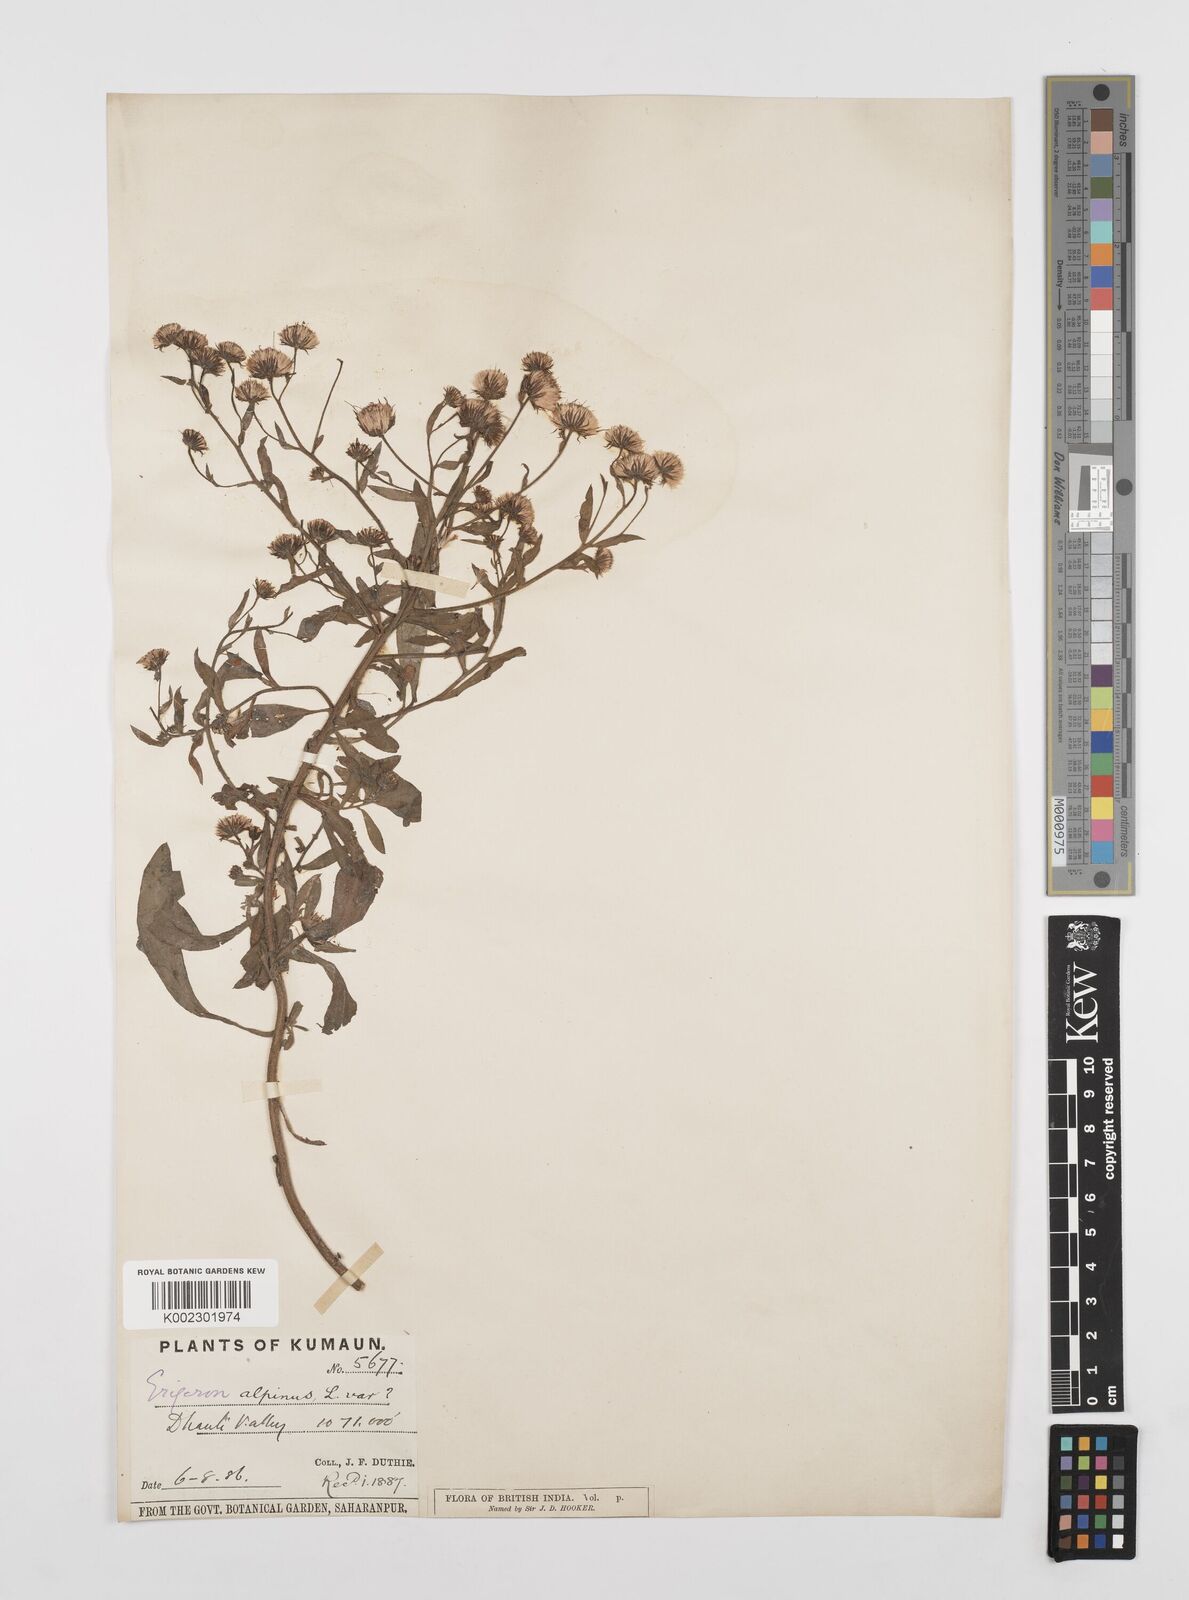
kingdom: Plantae
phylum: Tracheophyta
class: Magnoliopsida
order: Asterales
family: Asteraceae
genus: Erigeron
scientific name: Erigeron alpinus
